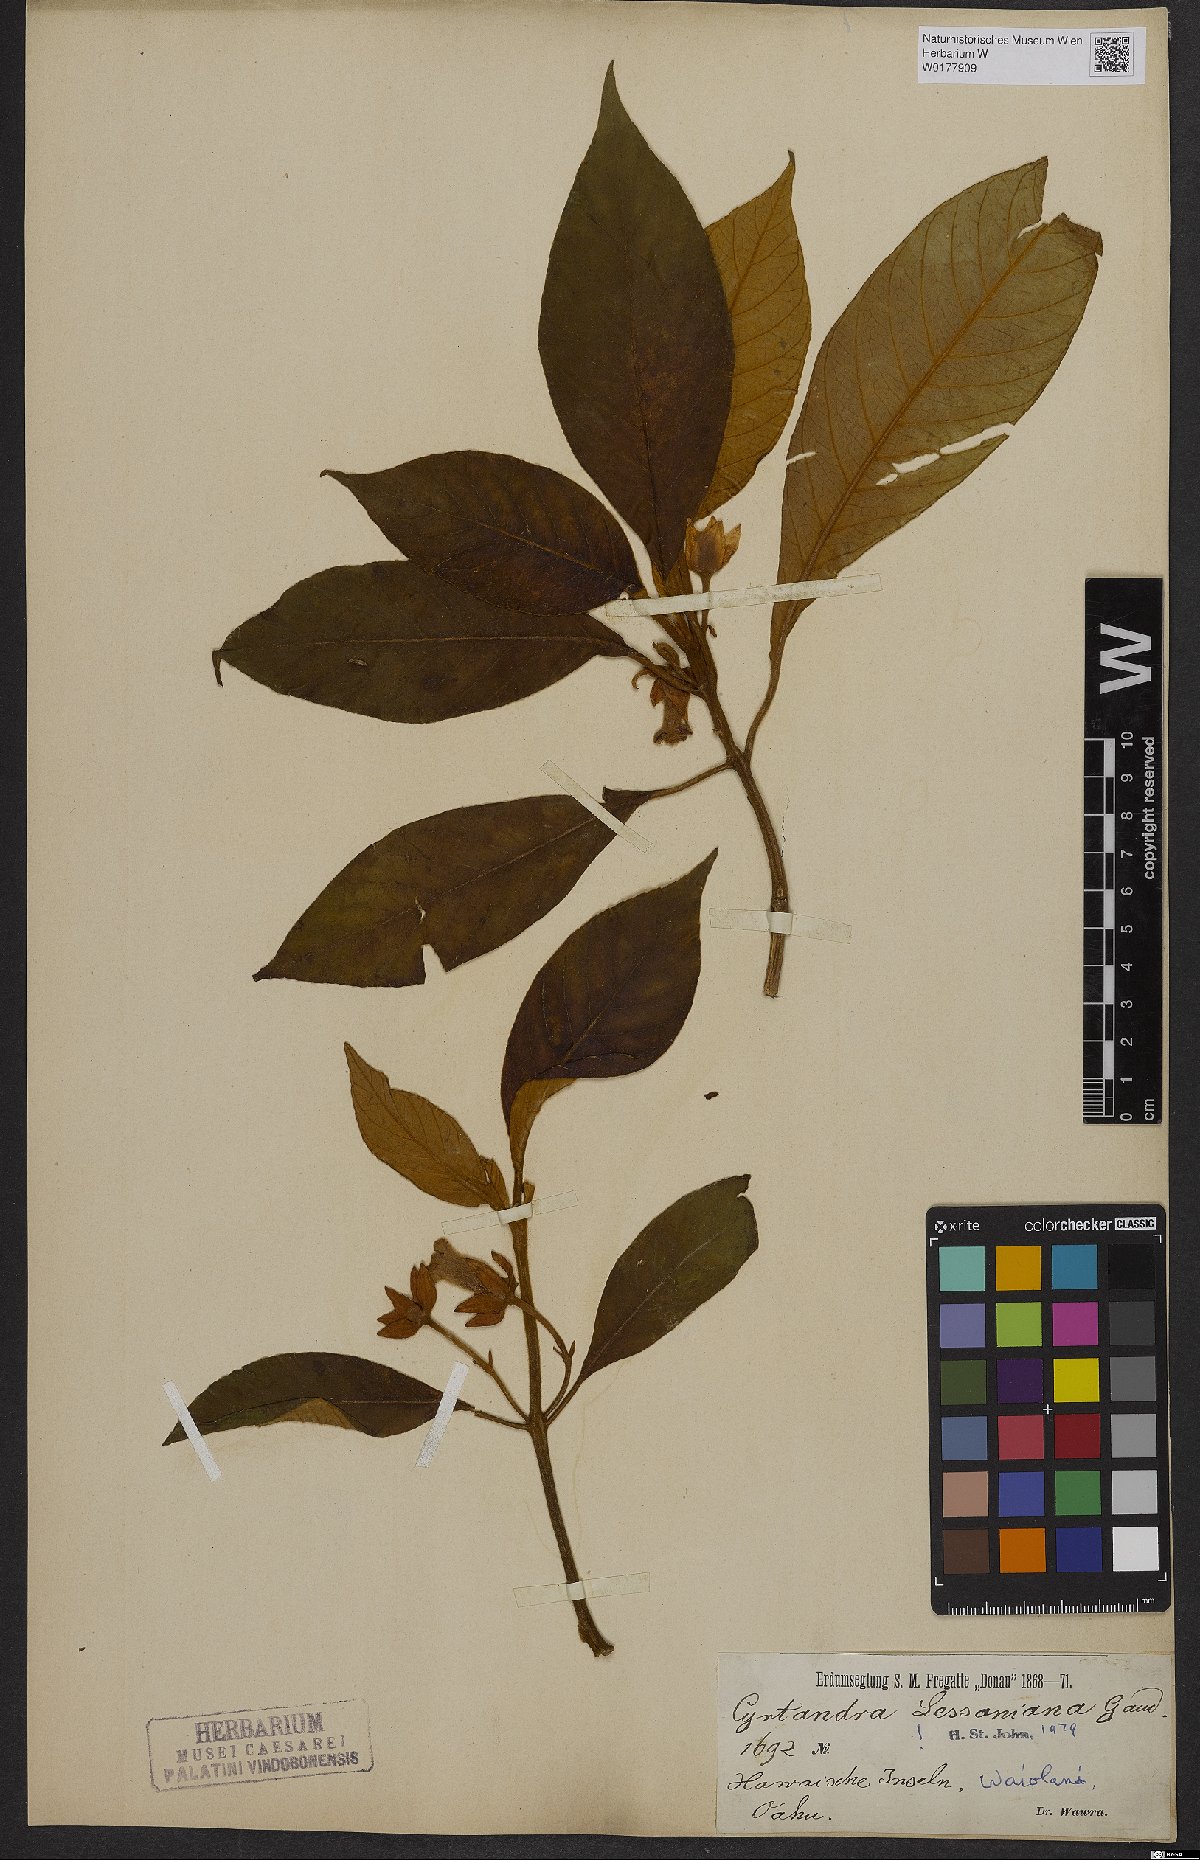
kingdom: Plantae
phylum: Tracheophyta
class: Magnoliopsida
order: Lamiales
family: Gesneriaceae
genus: Cyrtandra
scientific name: Cyrtandra lessoniana
